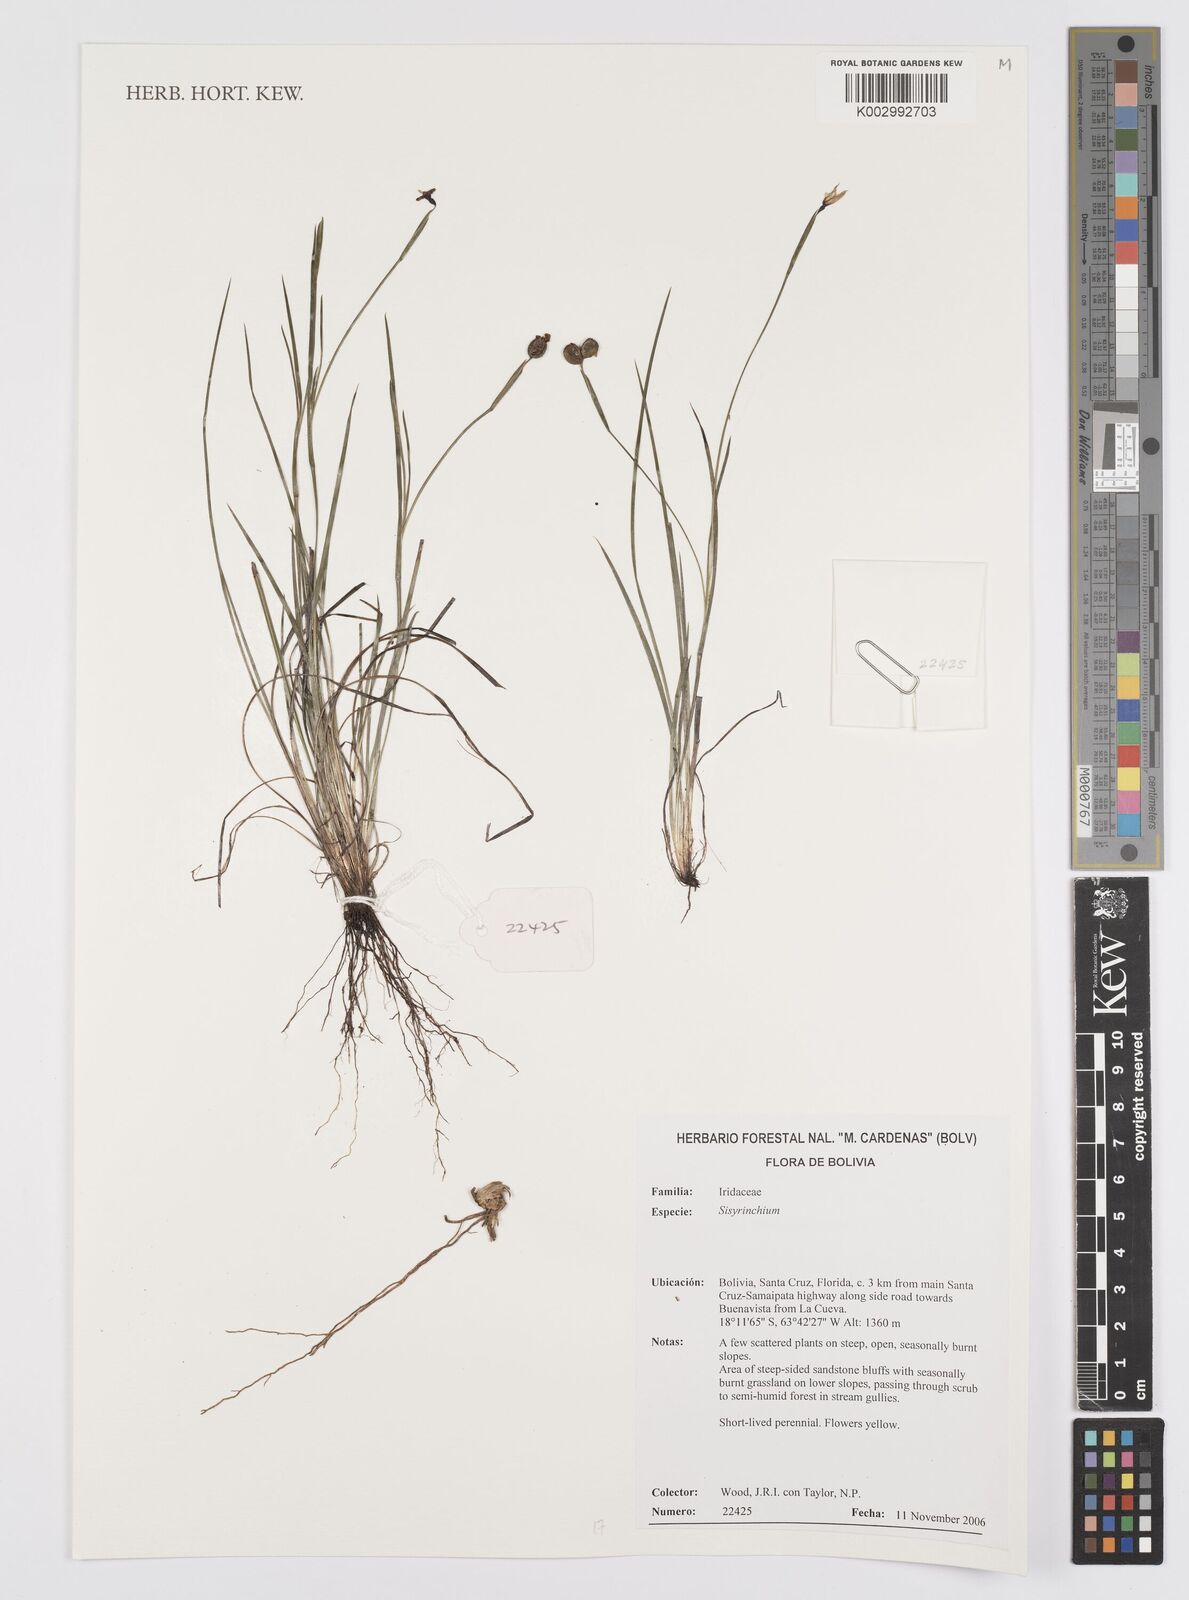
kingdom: Plantae
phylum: Tracheophyta
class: Liliopsida
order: Asparagales
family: Iridaceae
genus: Sisyrinchium
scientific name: Sisyrinchium
